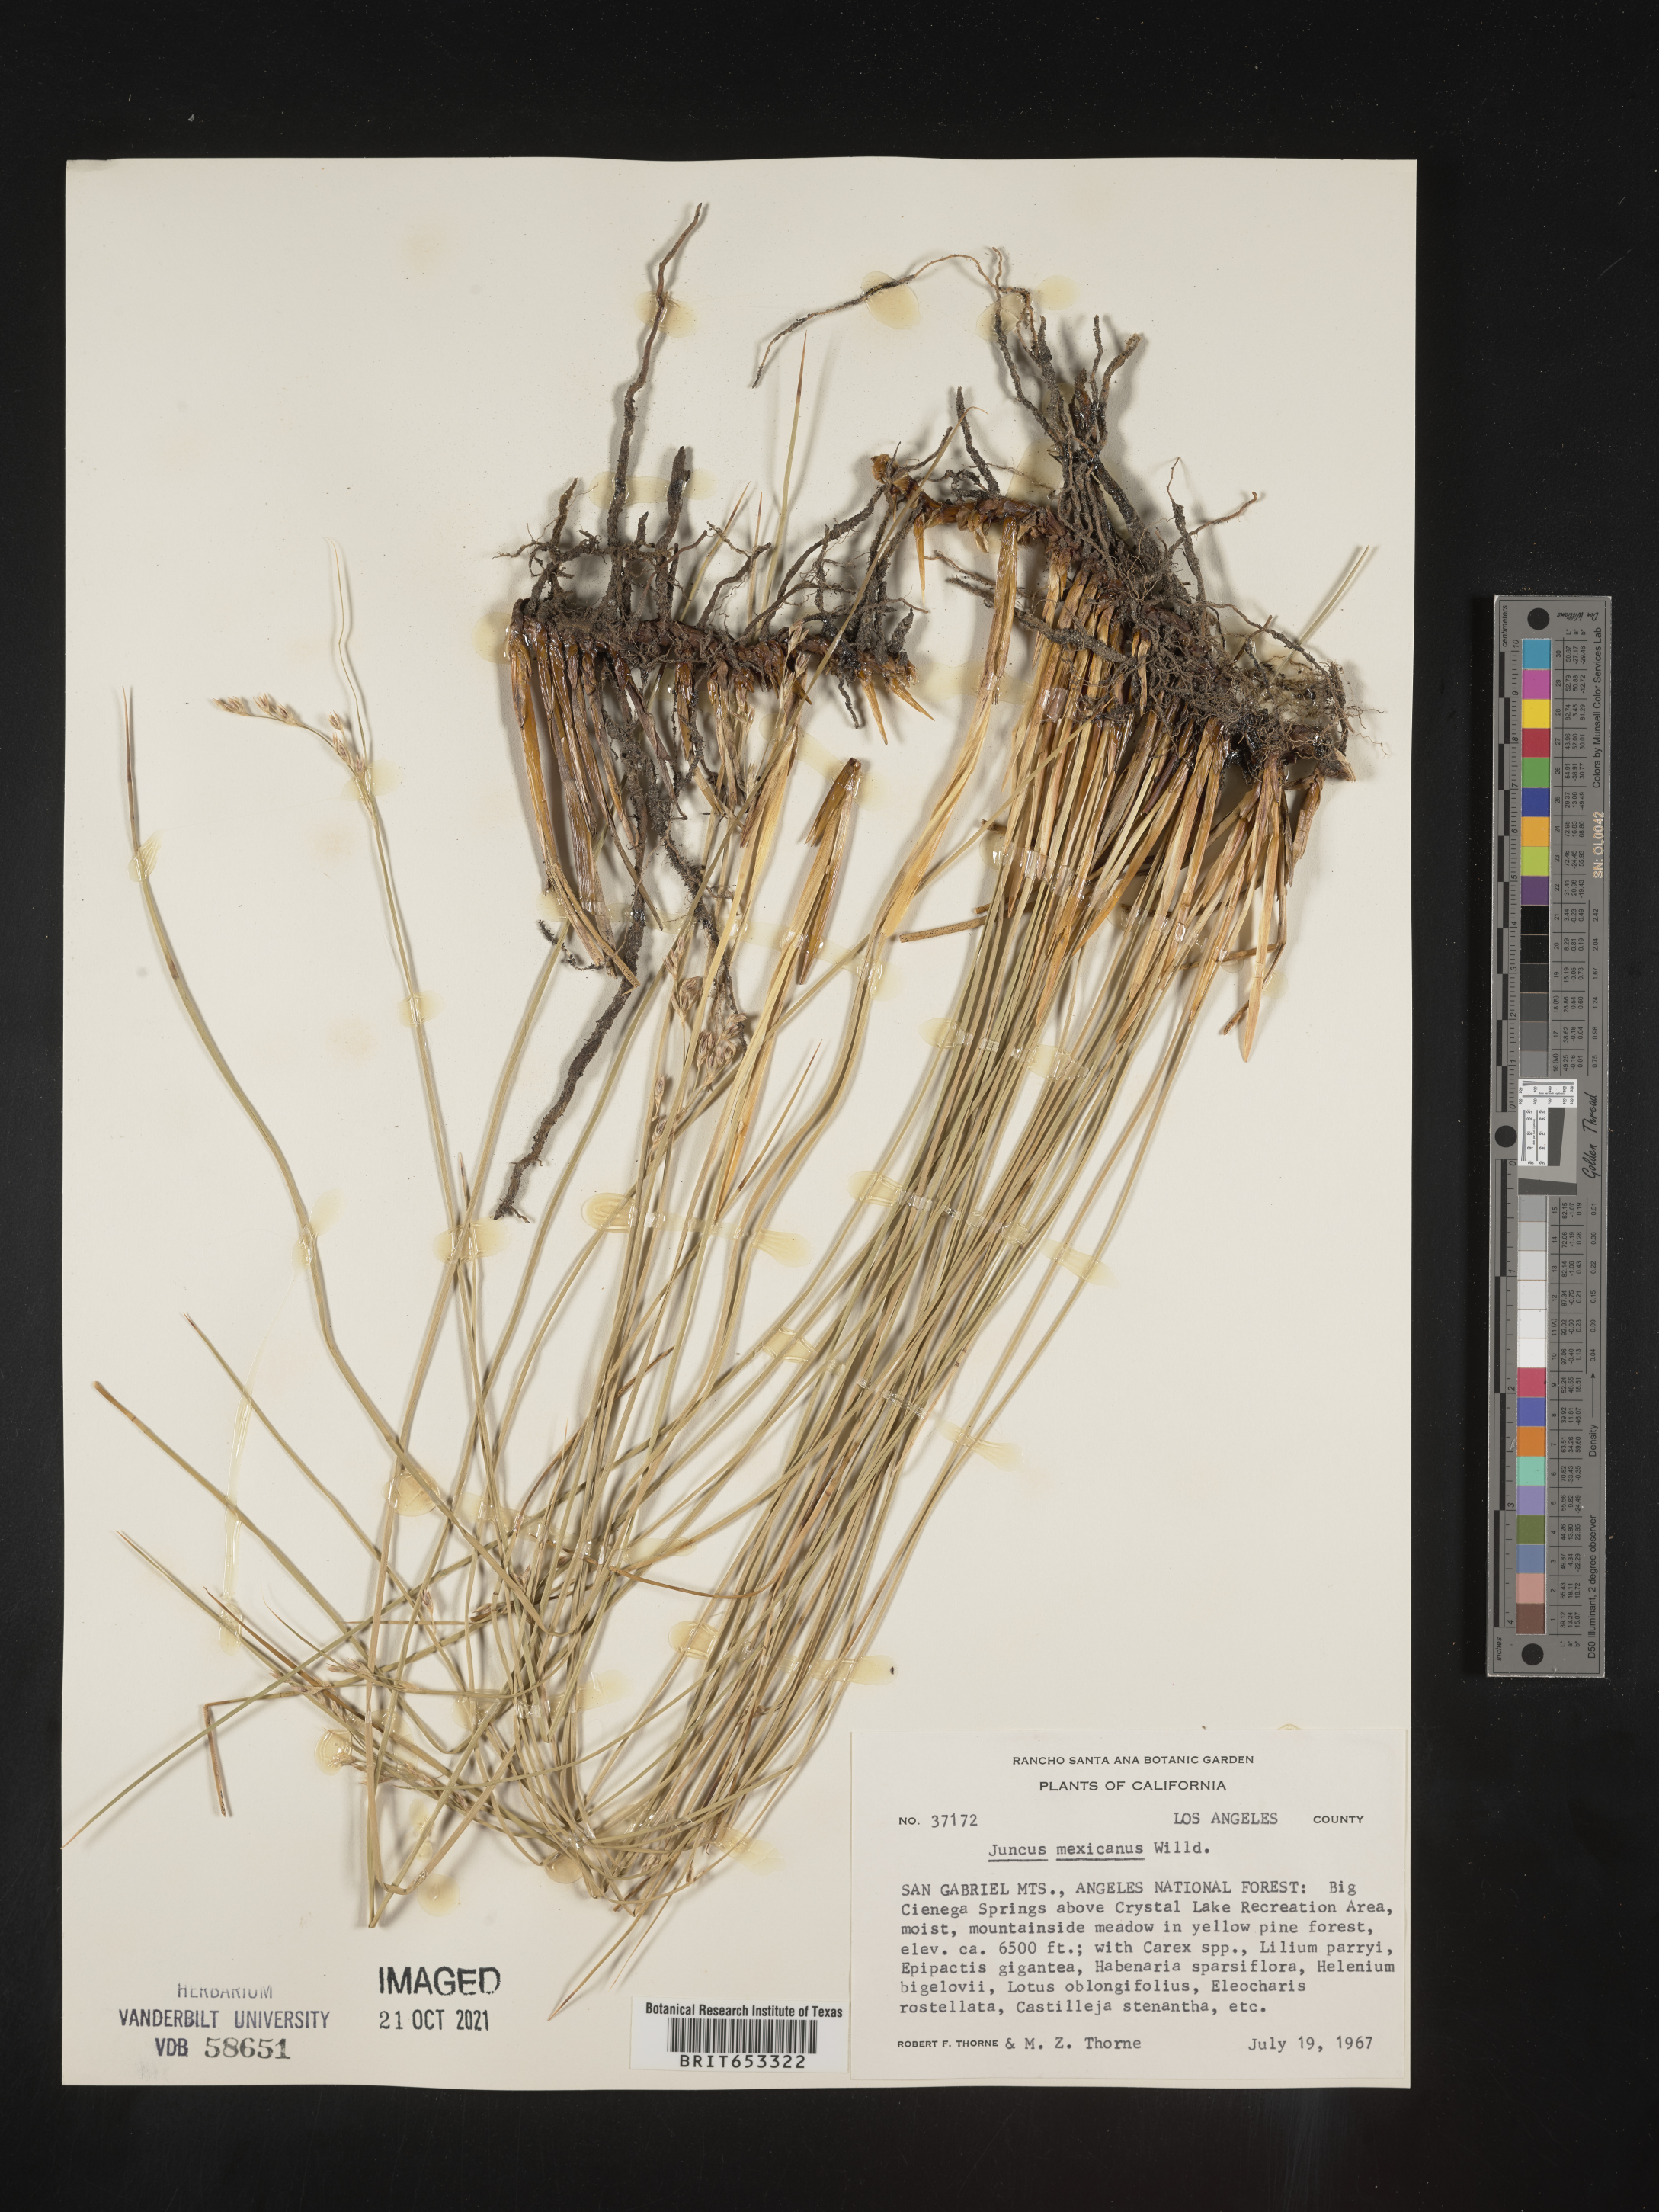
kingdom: Plantae
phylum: Tracheophyta
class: Liliopsida
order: Poales
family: Juncaceae
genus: Juncus
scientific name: Juncus balticus
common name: Baltic rush
